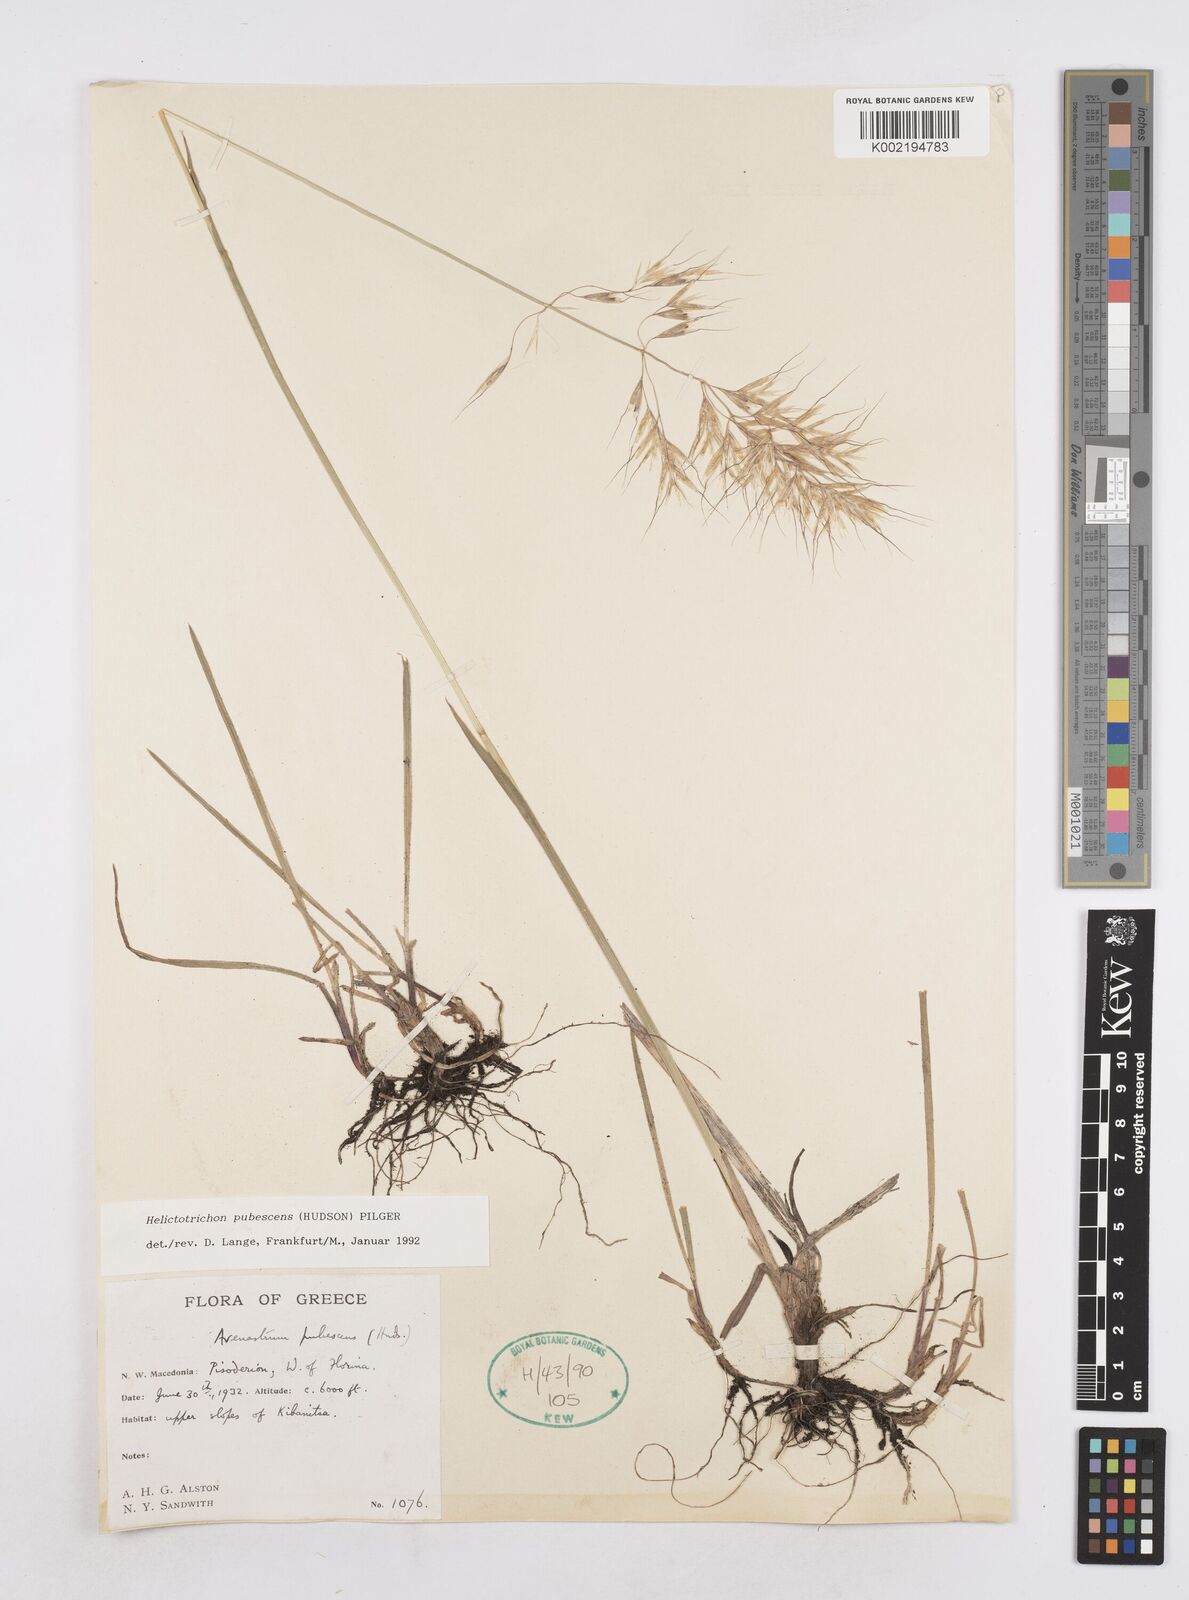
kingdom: Plantae
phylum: Tracheophyta
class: Liliopsida
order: Poales
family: Poaceae
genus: Avenula
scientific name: Avenula pubescens
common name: Downy alpine oatgrass
